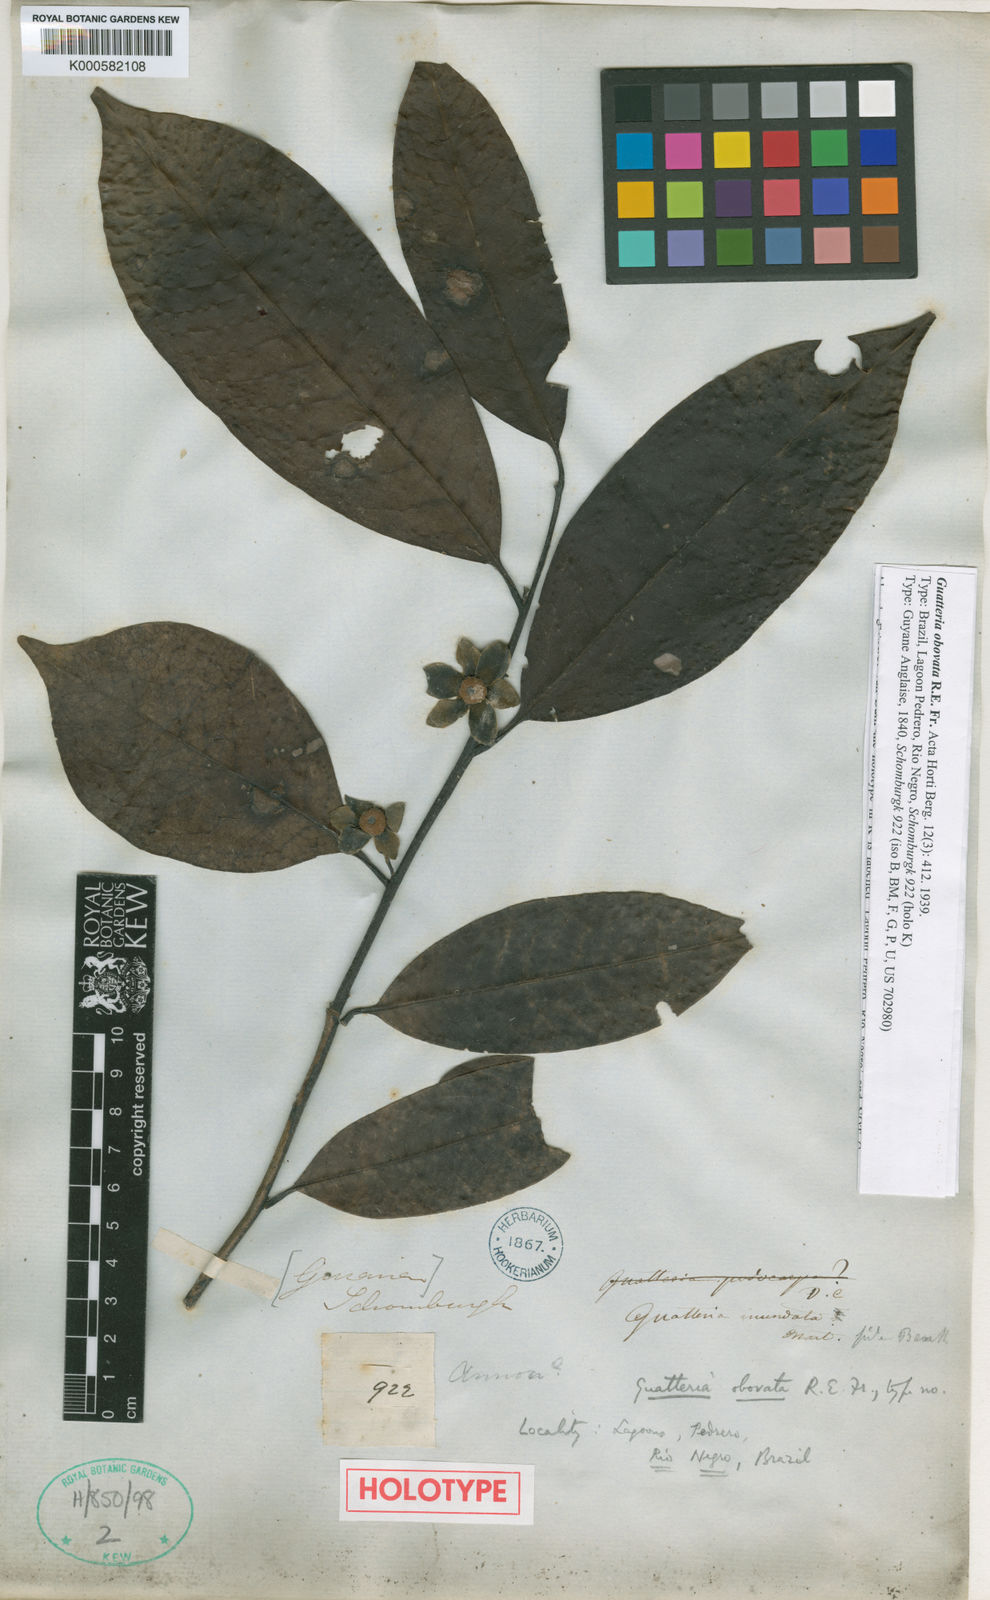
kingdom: Plantae
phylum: Tracheophyta
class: Magnoliopsida
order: Magnoliales
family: Annonaceae
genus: Guatteria
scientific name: Guatteria obovata
